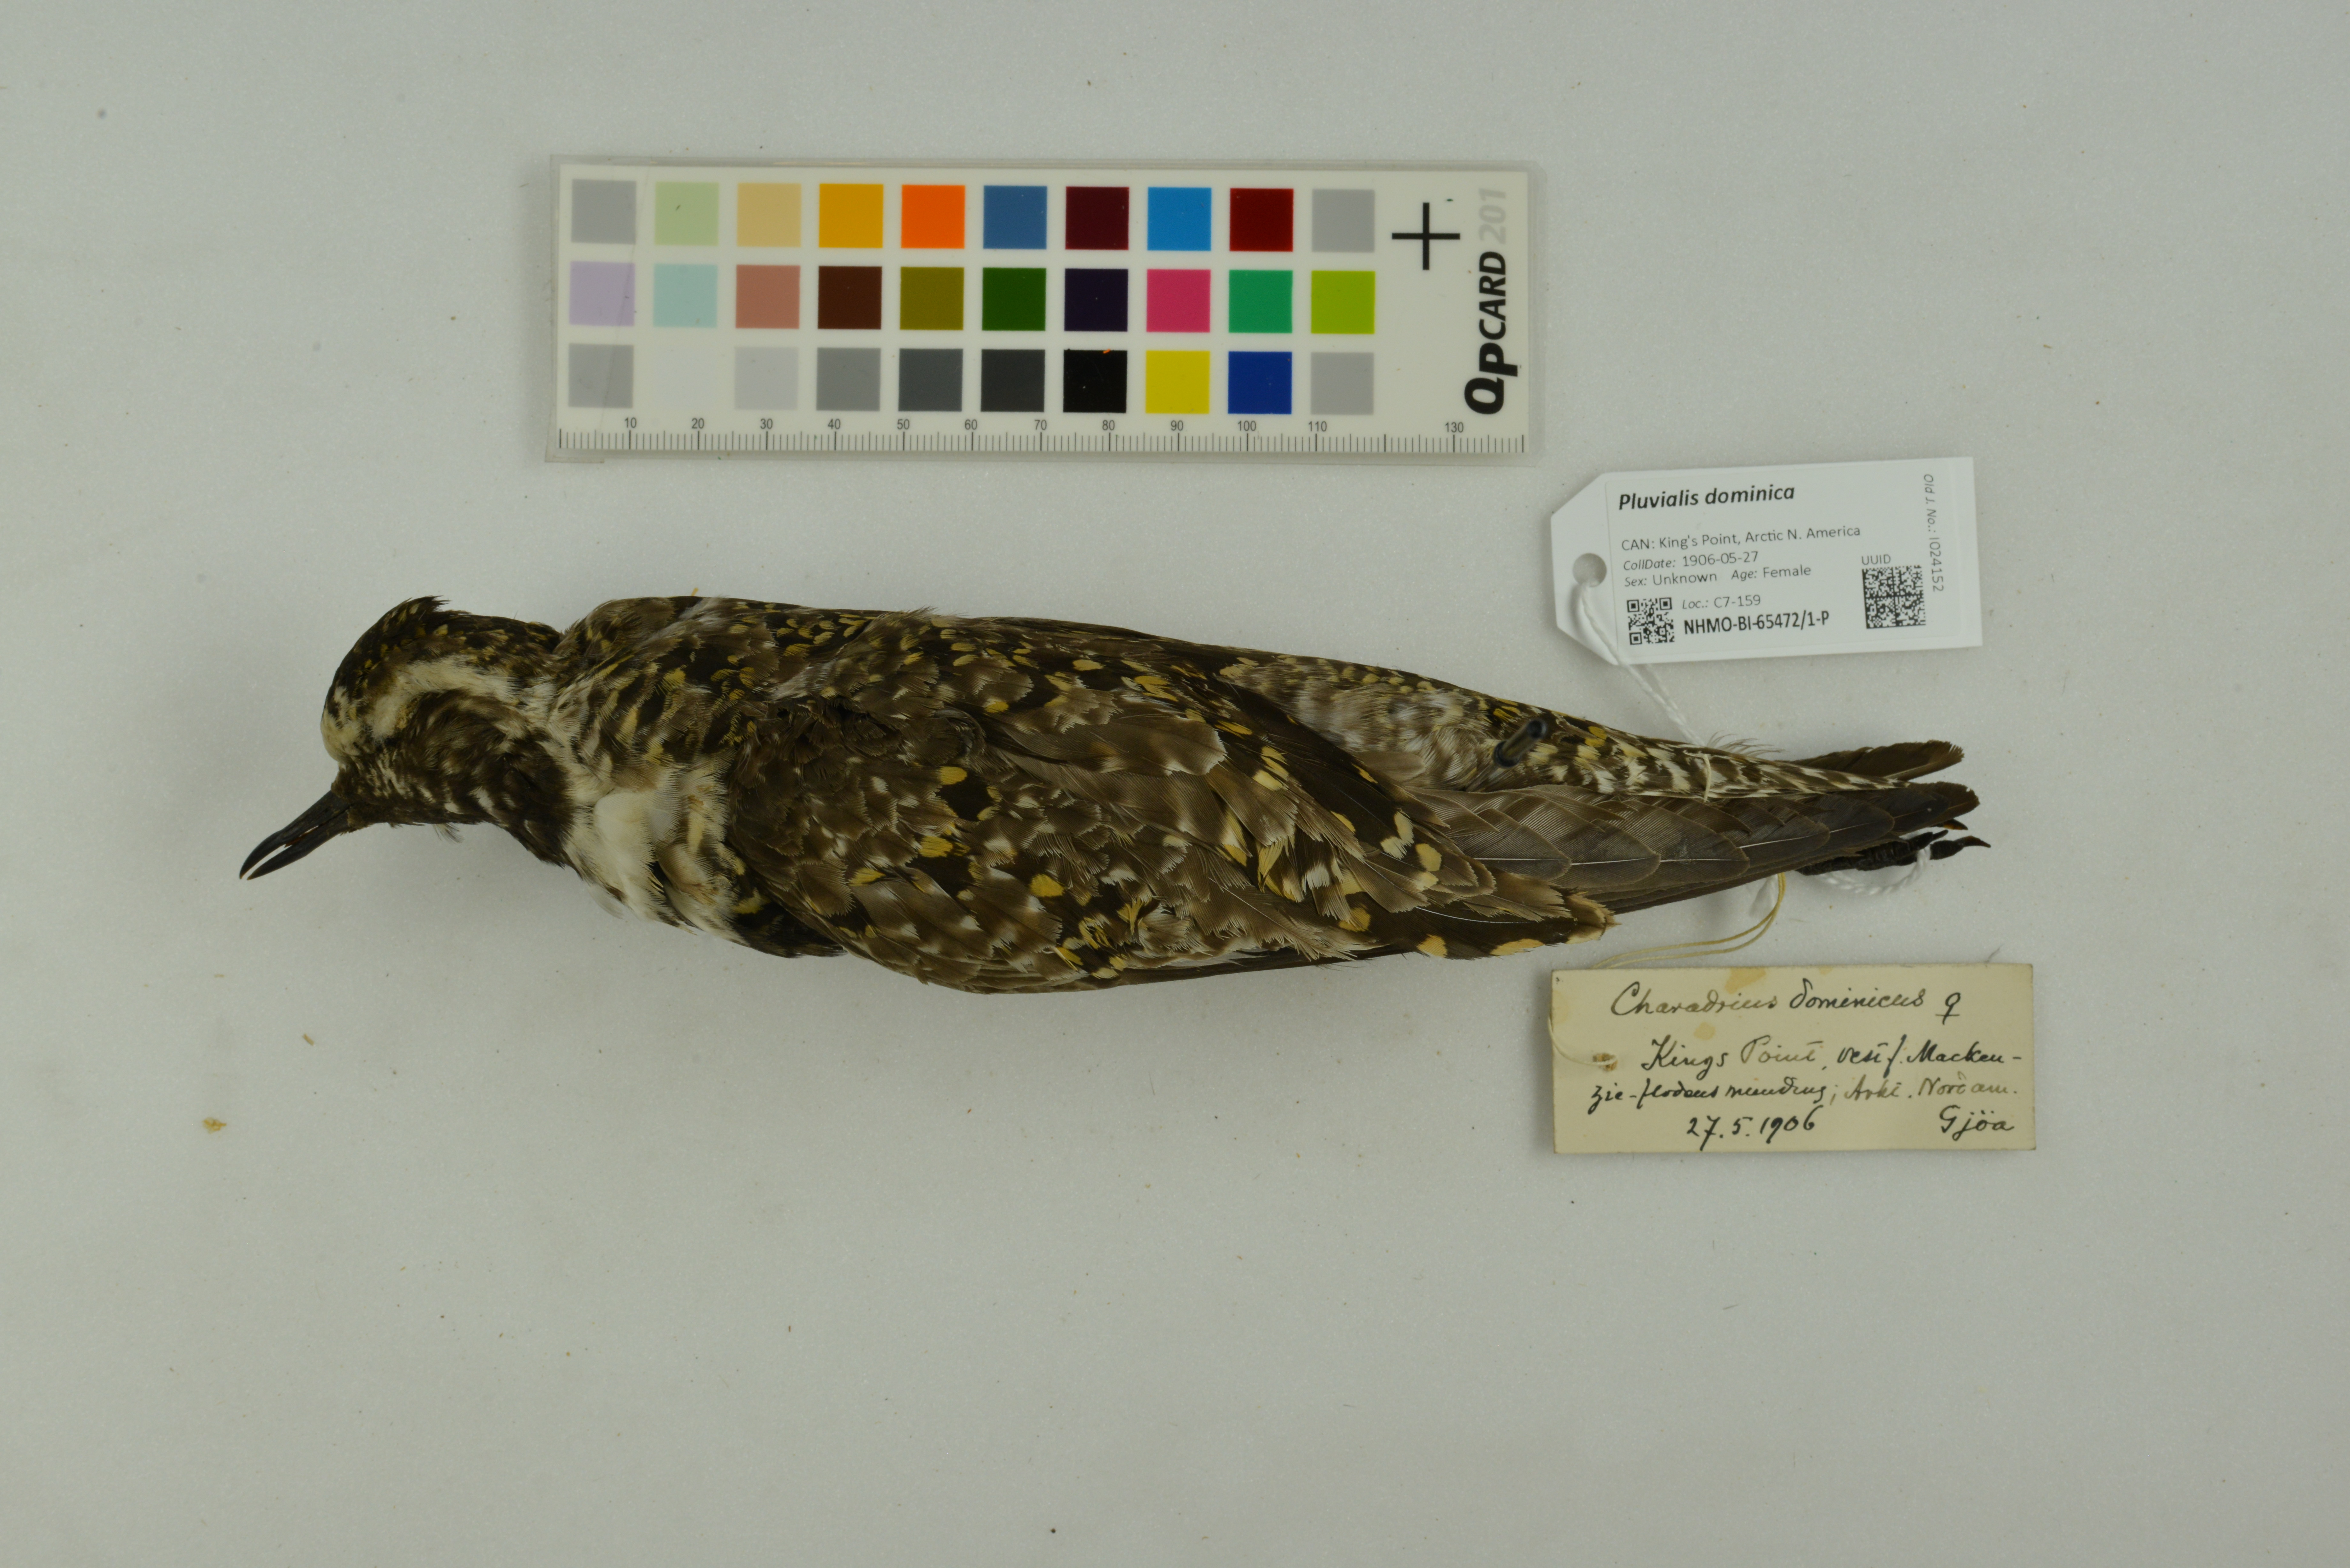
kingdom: Animalia
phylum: Chordata
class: Aves
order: Charadriiformes
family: Charadriidae
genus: Pluvialis
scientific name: Pluvialis dominica
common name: American golden plover
